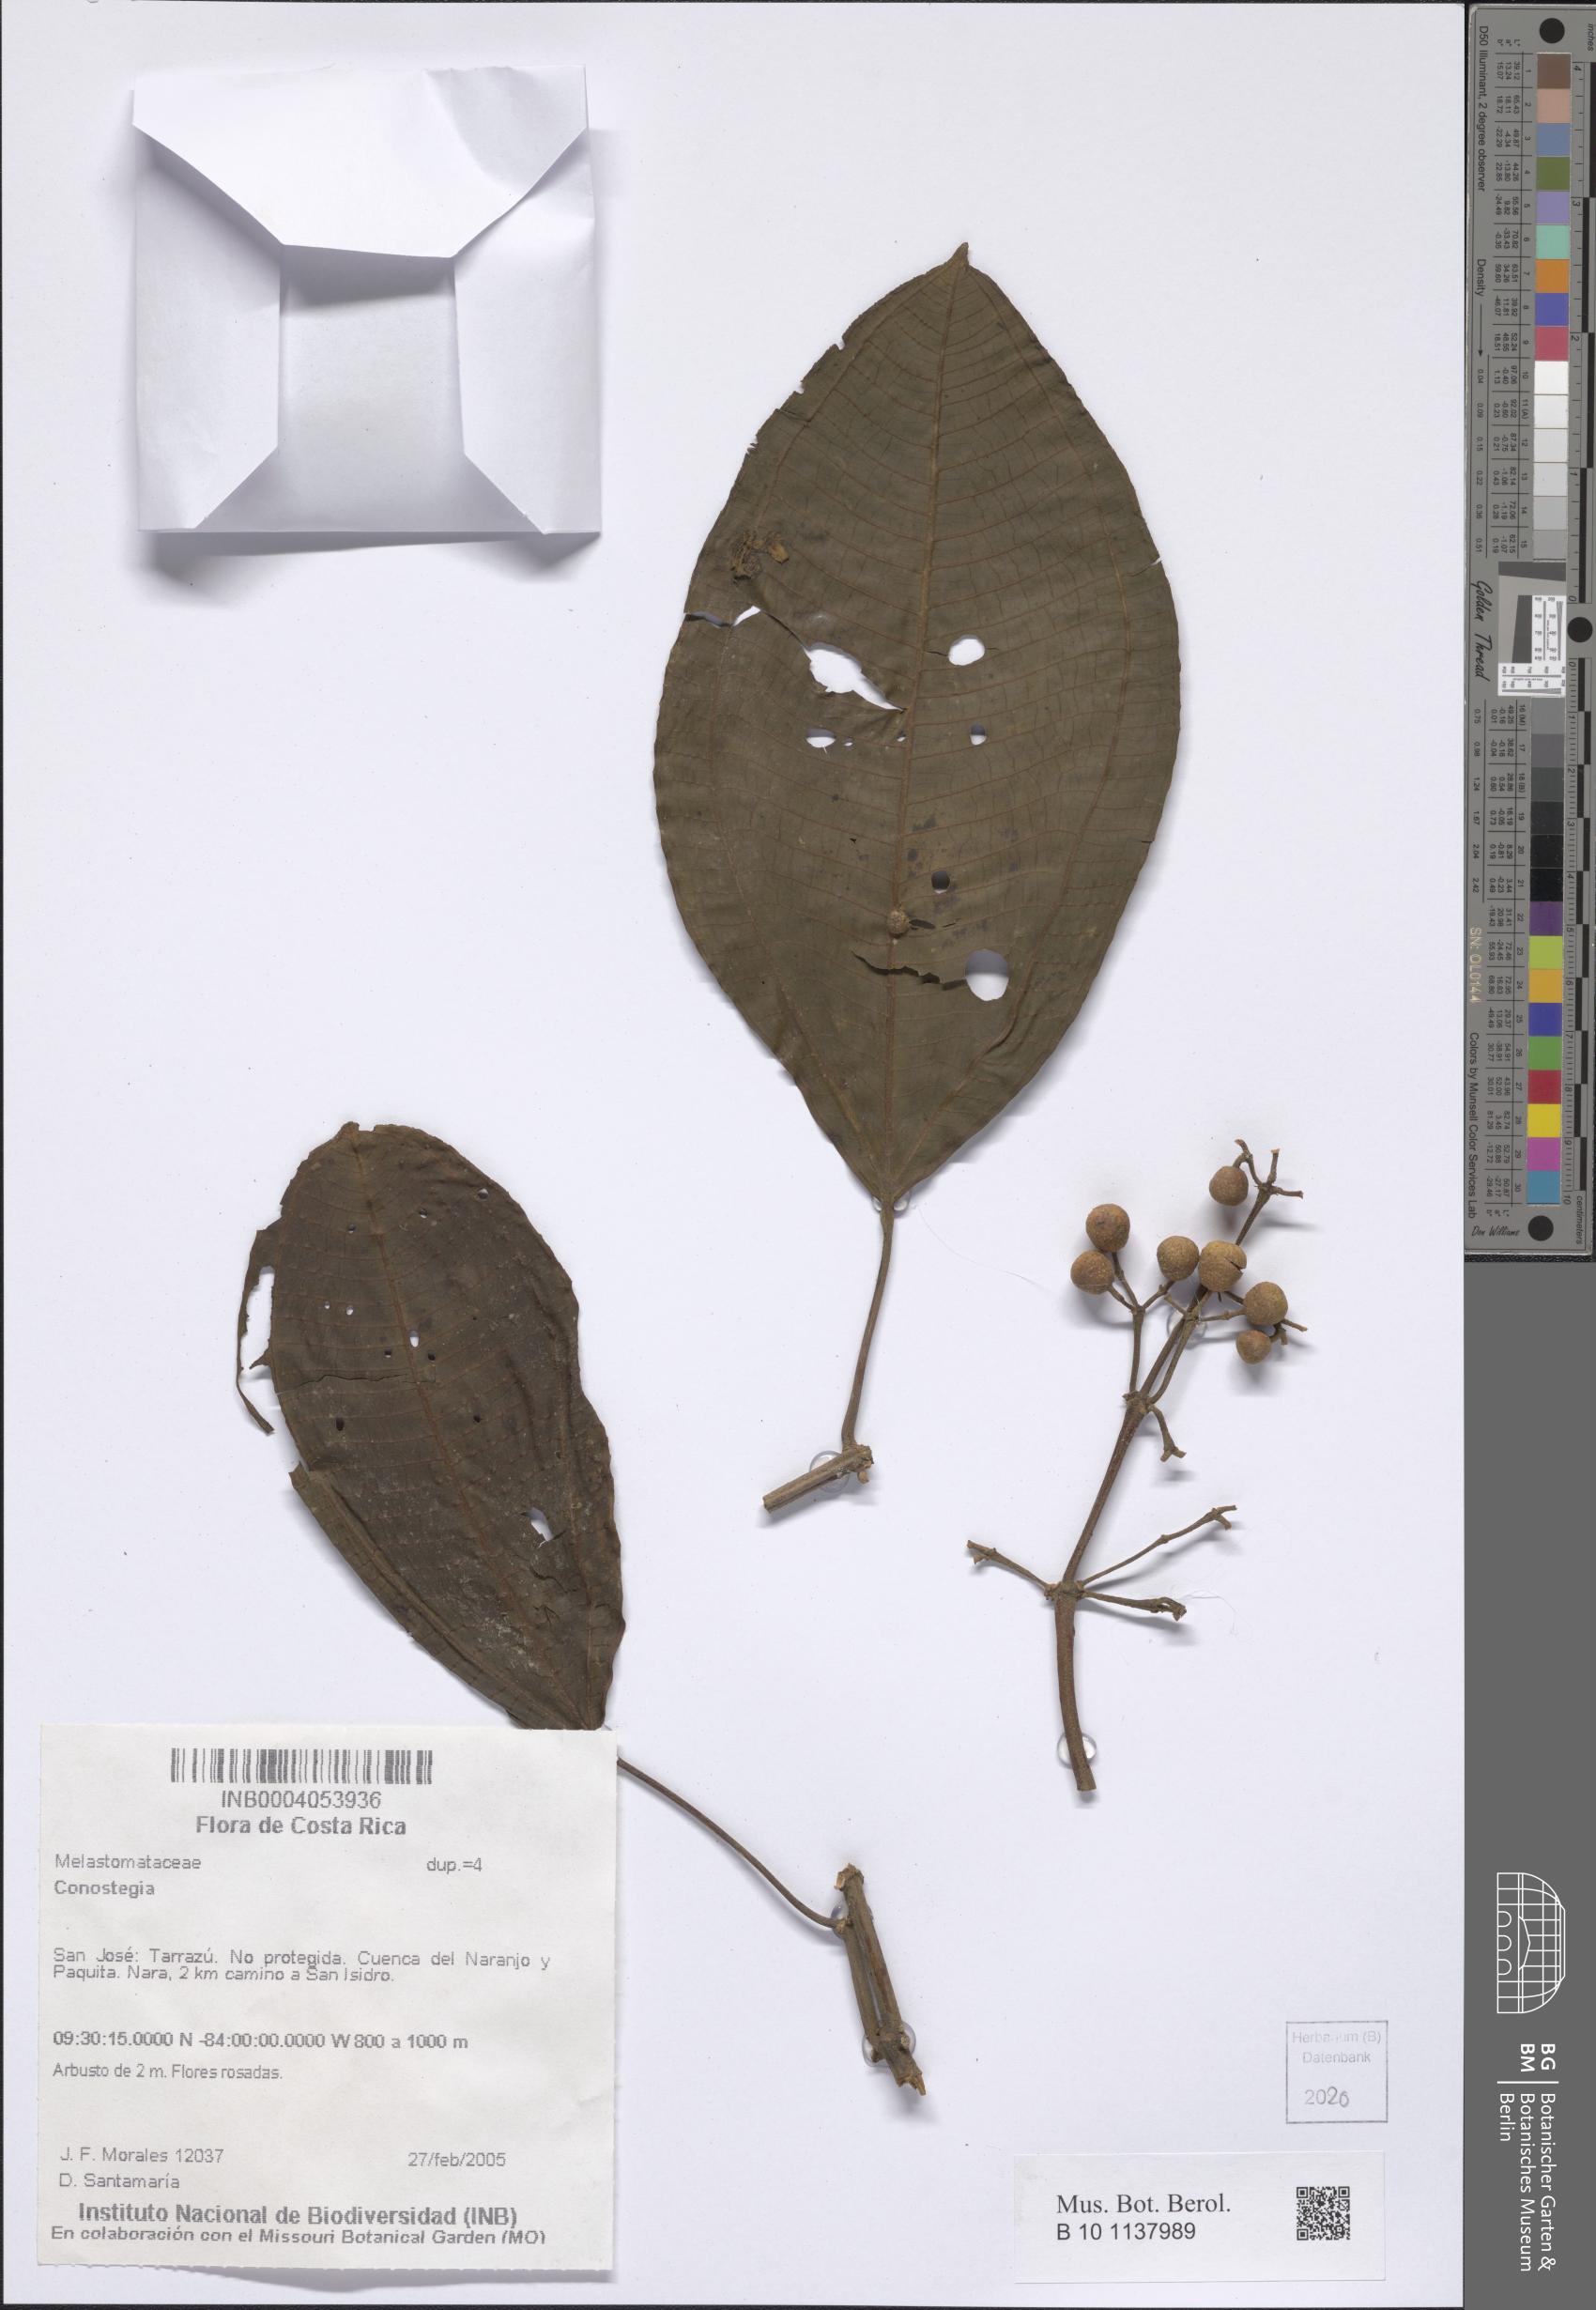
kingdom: Plantae
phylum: Tracheophyta
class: Magnoliopsida
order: Myrtales
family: Melastomataceae
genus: Miconia
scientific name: Miconia
